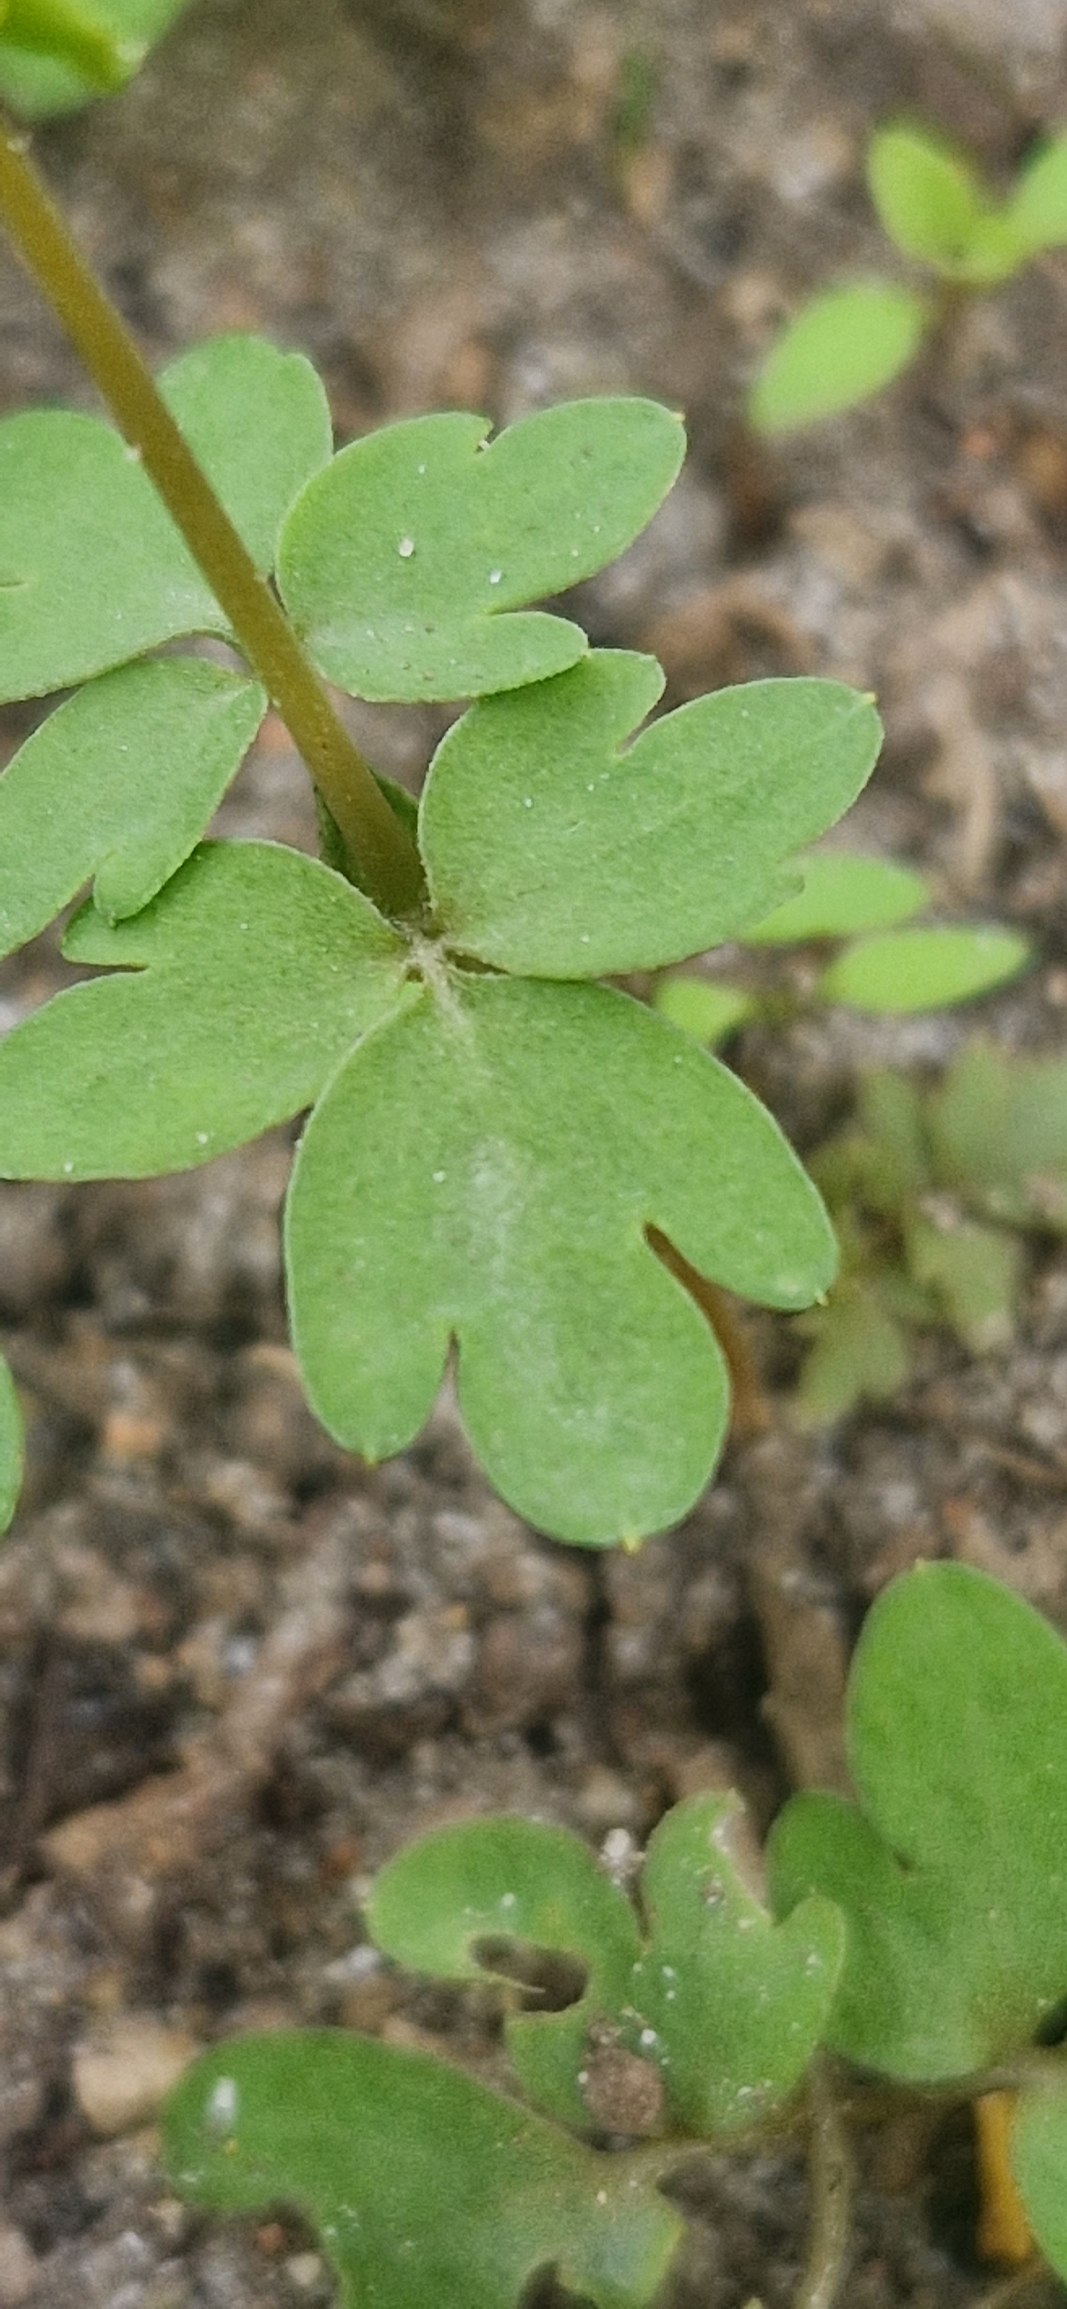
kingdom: Plantae
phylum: Tracheophyta
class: Magnoliopsida
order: Dipsacales
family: Viburnaceae
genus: Adoxa
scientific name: Adoxa moschatellina
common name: Desmerurt
